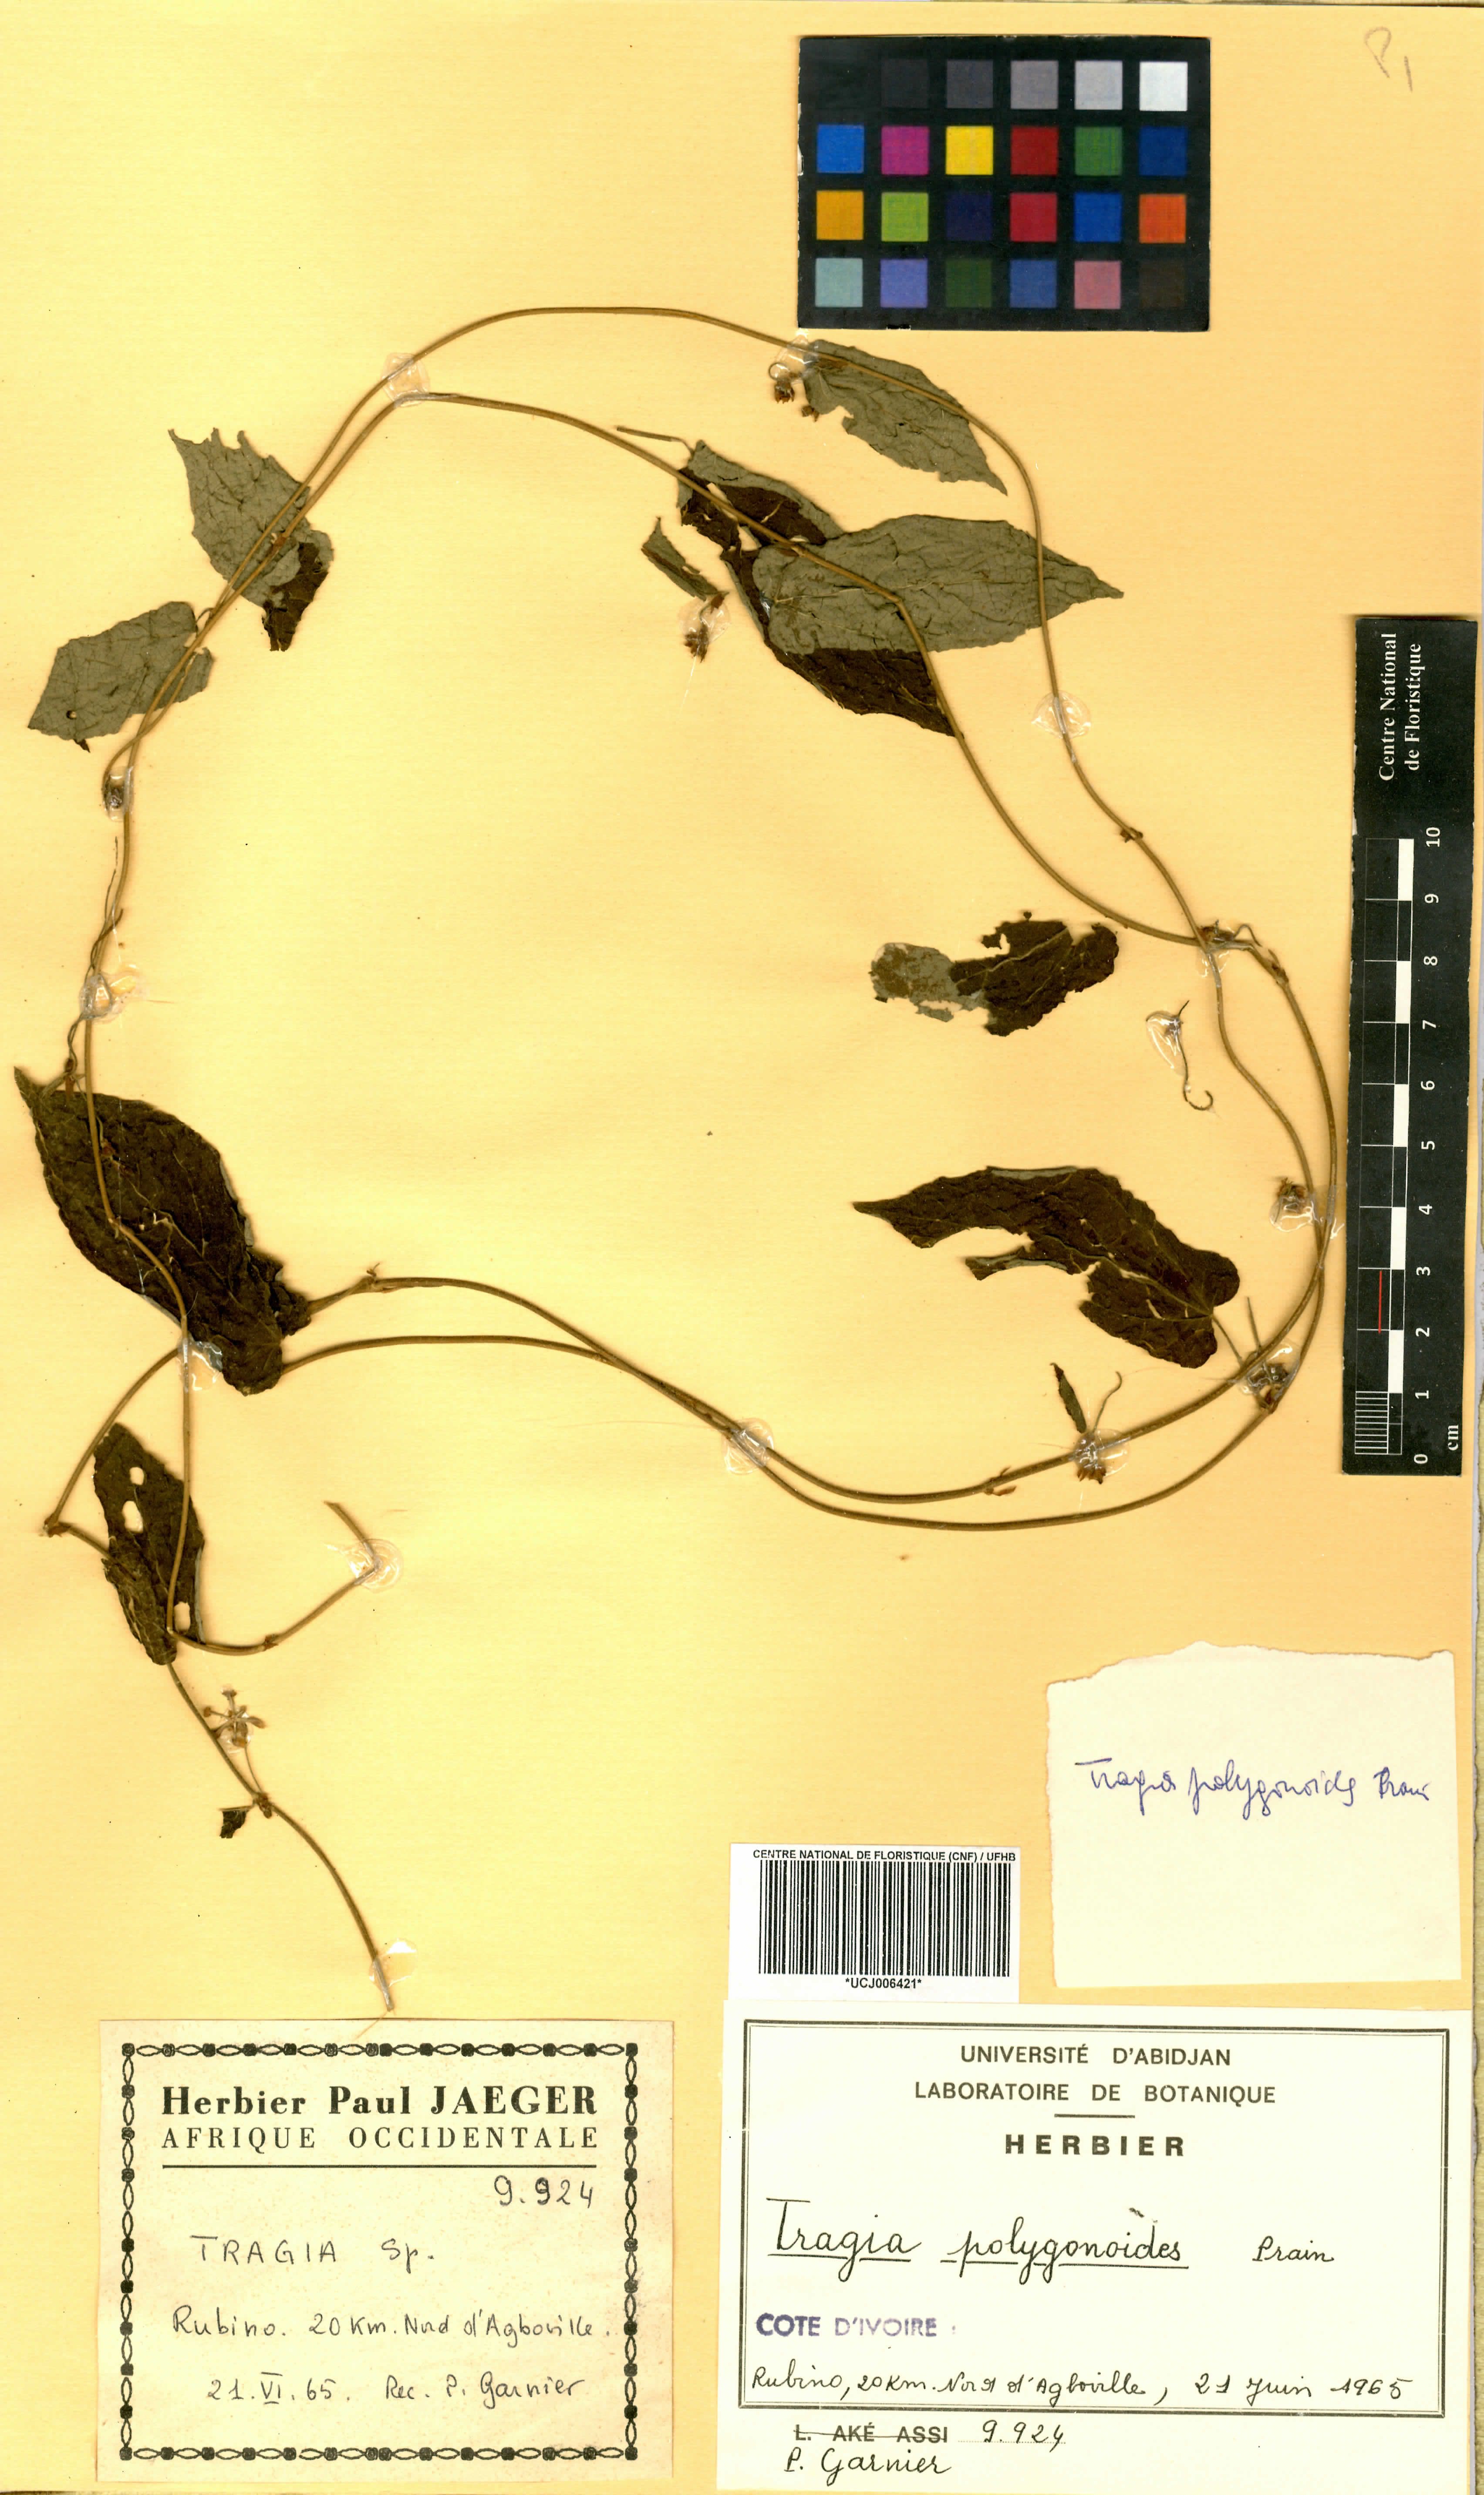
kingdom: Plantae
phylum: Tracheophyta
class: Magnoliopsida
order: Malpighiales
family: Euphorbiaceae
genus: Tragia
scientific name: Tragia polygonoides
